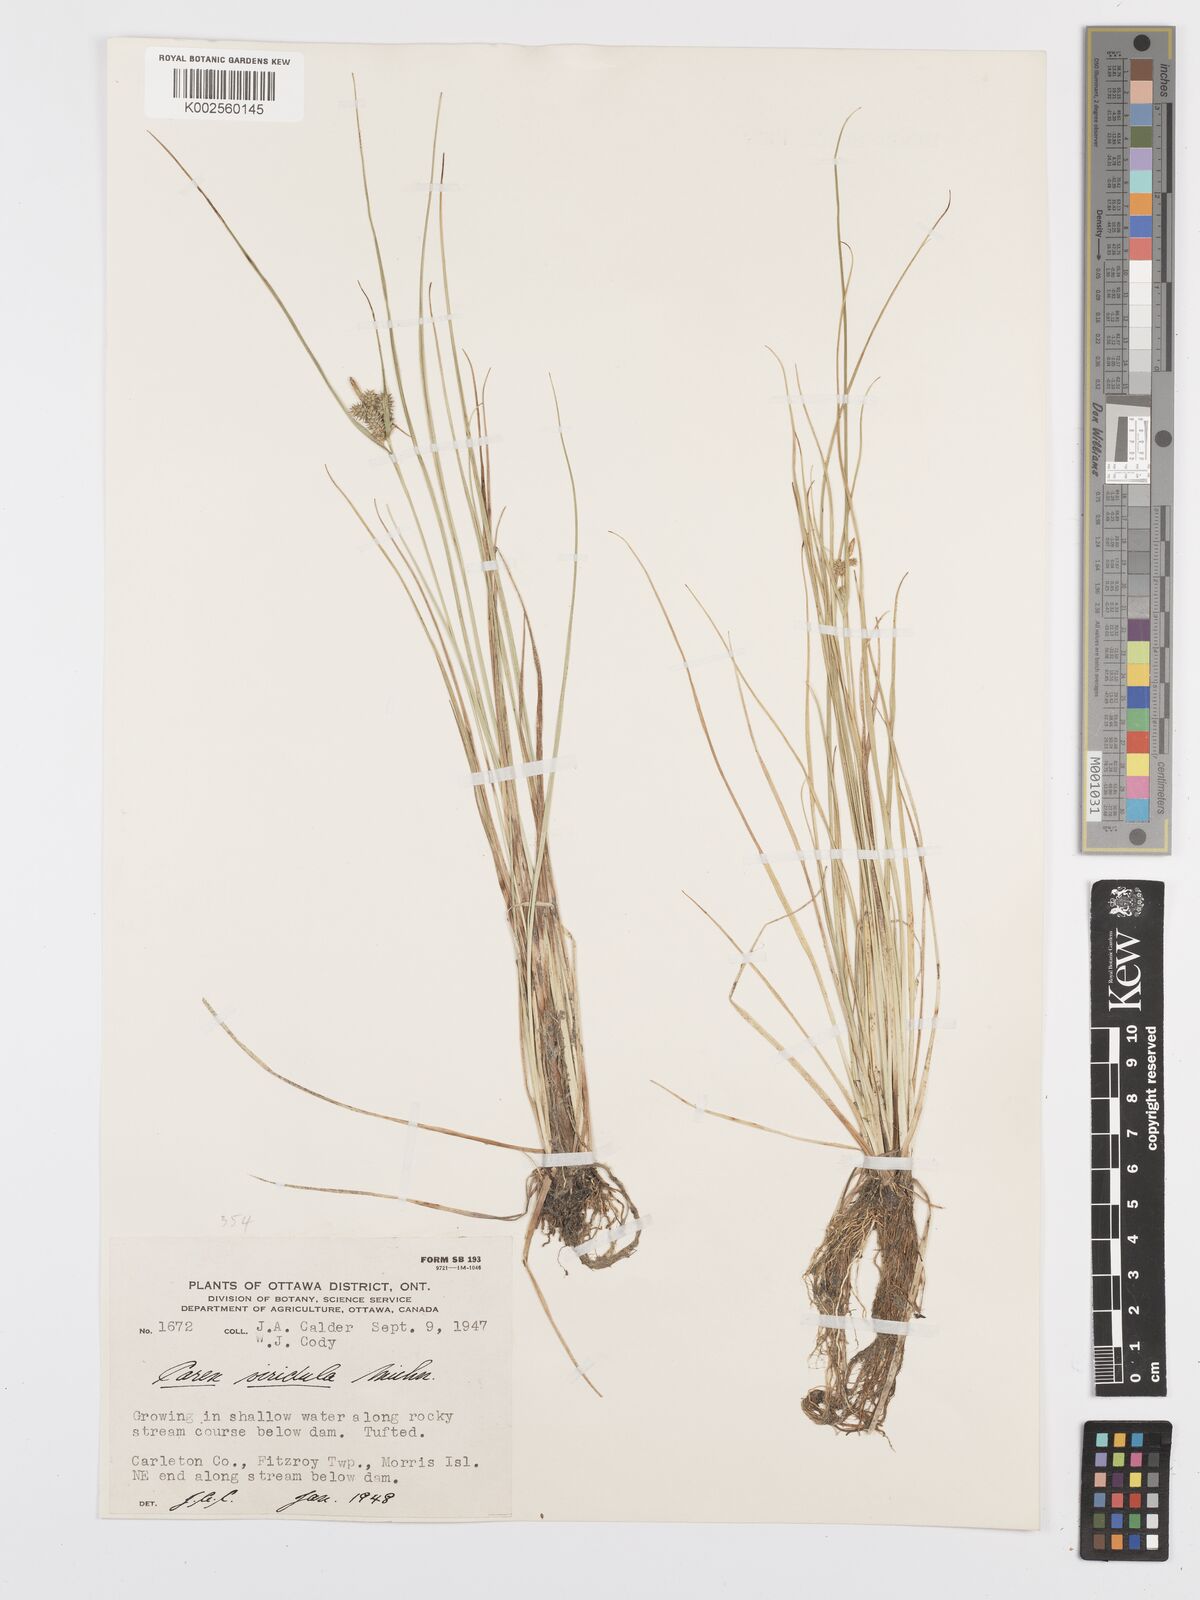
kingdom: Plantae
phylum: Tracheophyta
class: Liliopsida
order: Poales
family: Cyperaceae
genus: Carex
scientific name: Carex oederi
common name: Common & small-fruited yellow-sedge
